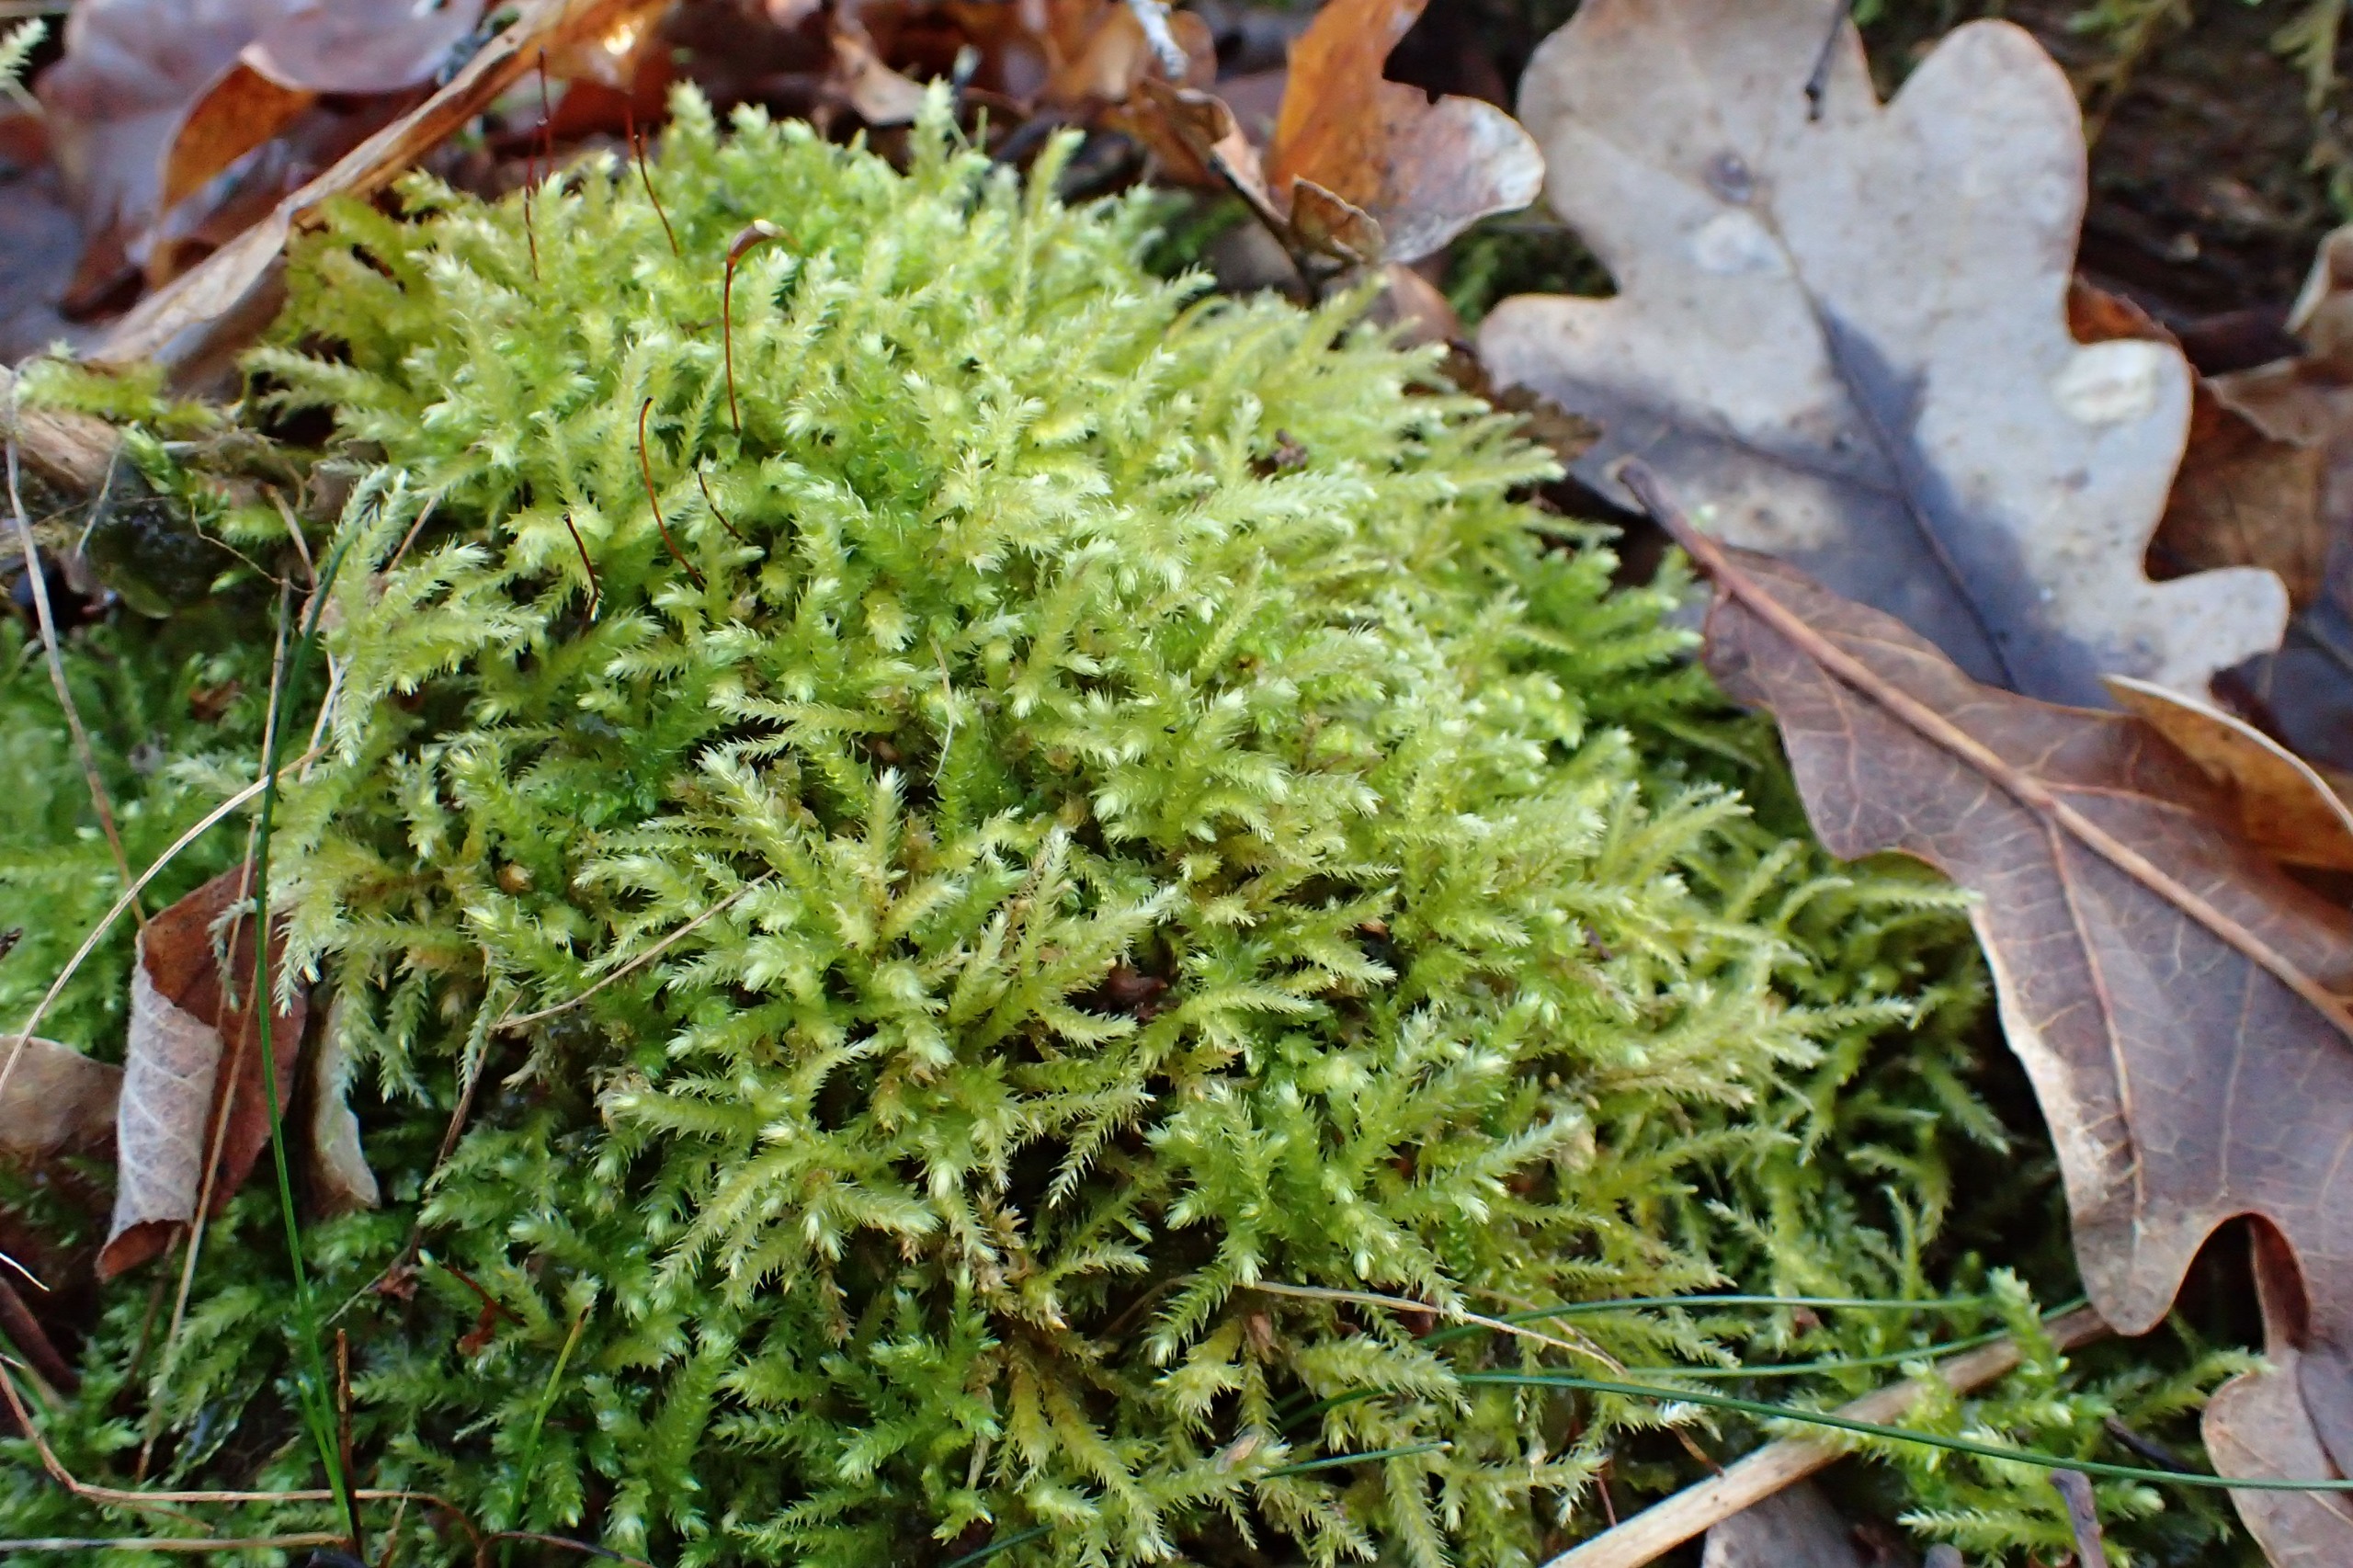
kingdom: Plantae
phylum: Bryophyta
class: Bryopsida
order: Hypnales
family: Brachytheciaceae
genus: Eurhynchium
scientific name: Eurhynchium striatum
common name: Stribet næbmos
